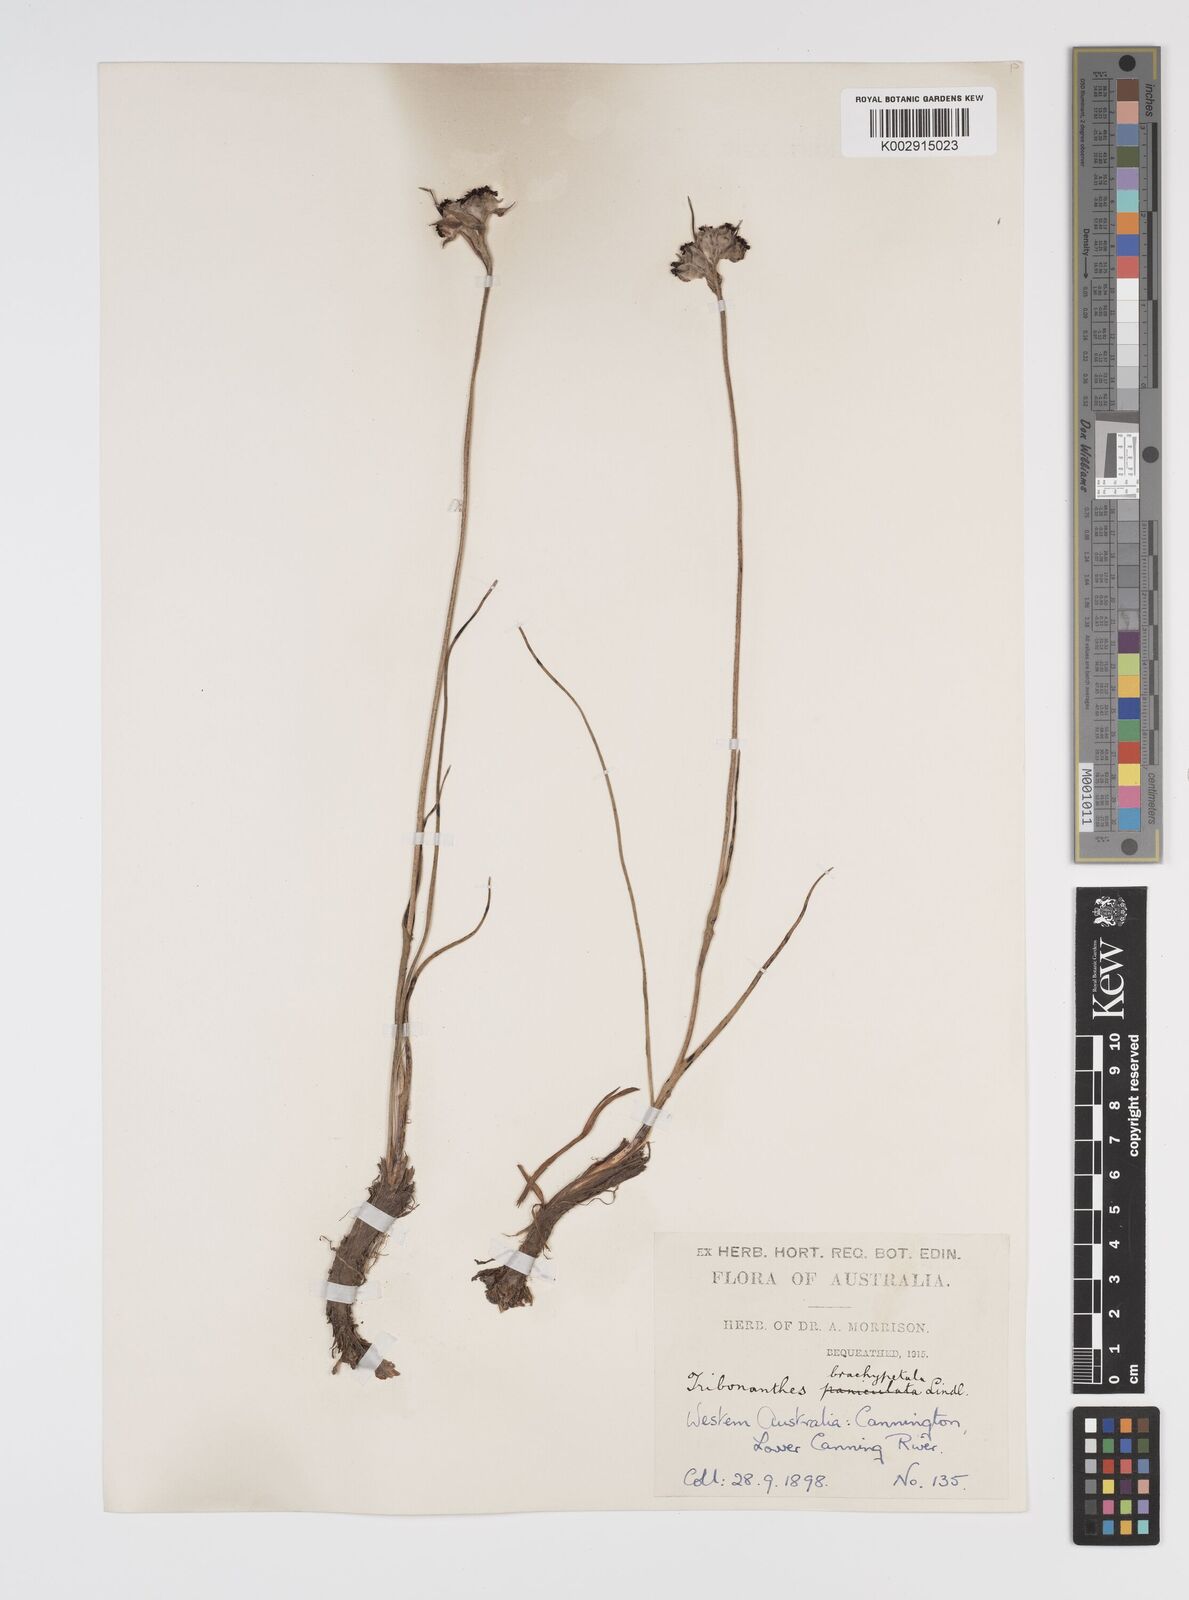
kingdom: Plantae
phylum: Tracheophyta
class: Liliopsida
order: Commelinales
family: Haemodoraceae
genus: Tribonanthes
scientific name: Tribonanthes brachypetala
